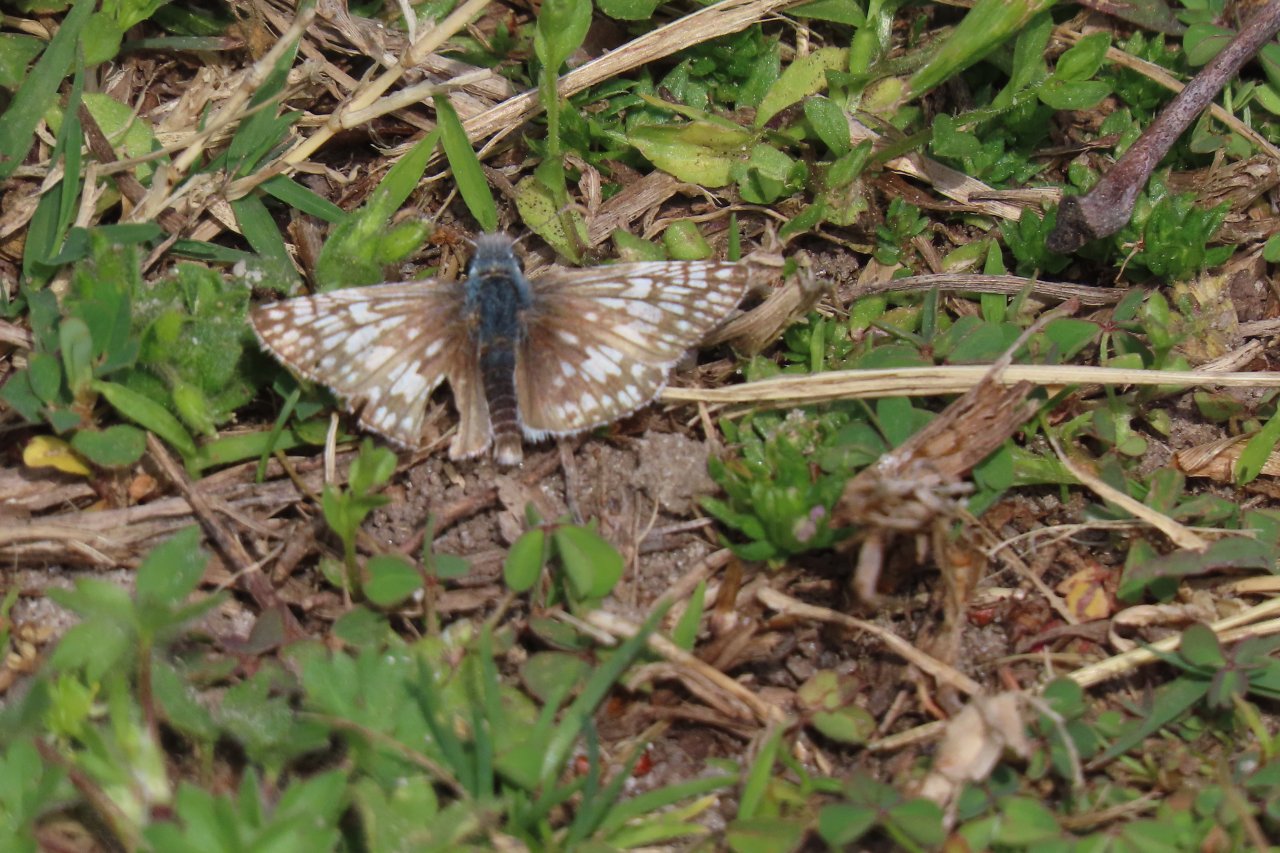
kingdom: Animalia
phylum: Arthropoda
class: Insecta
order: Lepidoptera
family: Hesperiidae
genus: Pyrgus
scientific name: Pyrgus communis
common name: Common Checkered-Skipper
